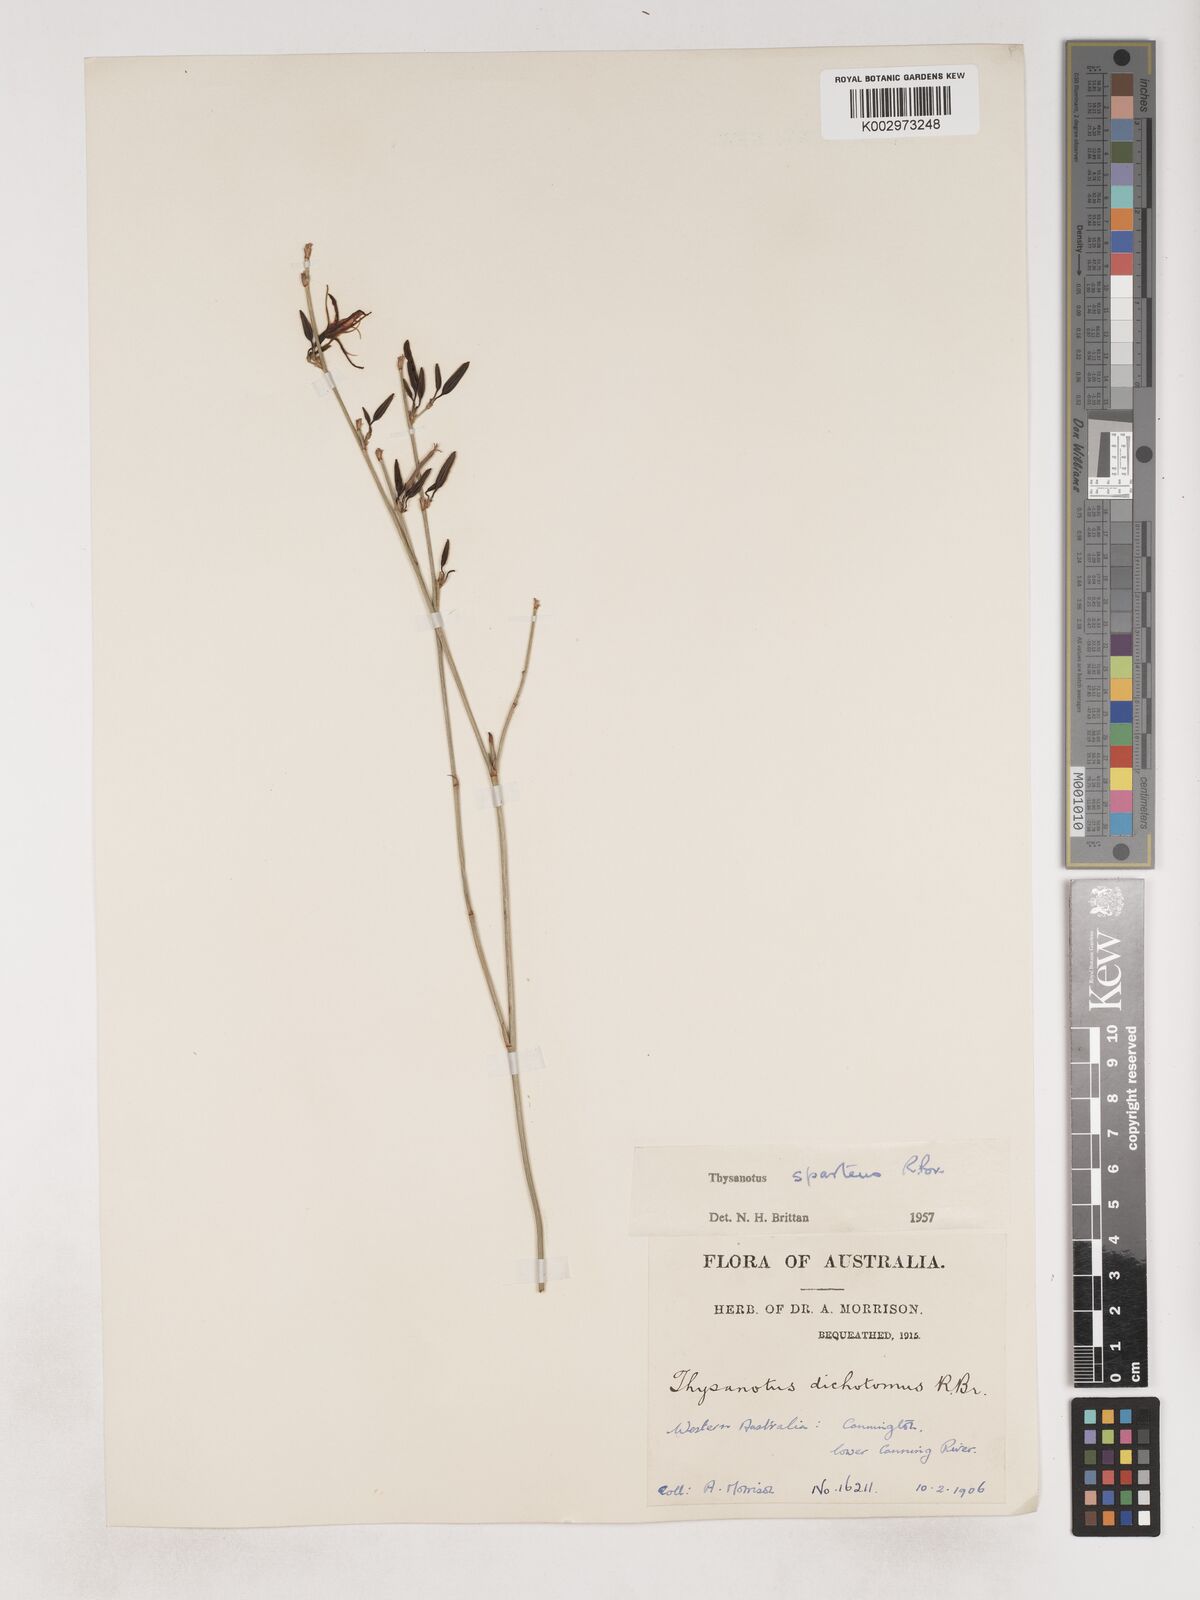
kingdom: Plantae
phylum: Tracheophyta
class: Liliopsida
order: Asparagales
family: Asparagaceae
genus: Thysanotus
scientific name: Thysanotus sparteus
